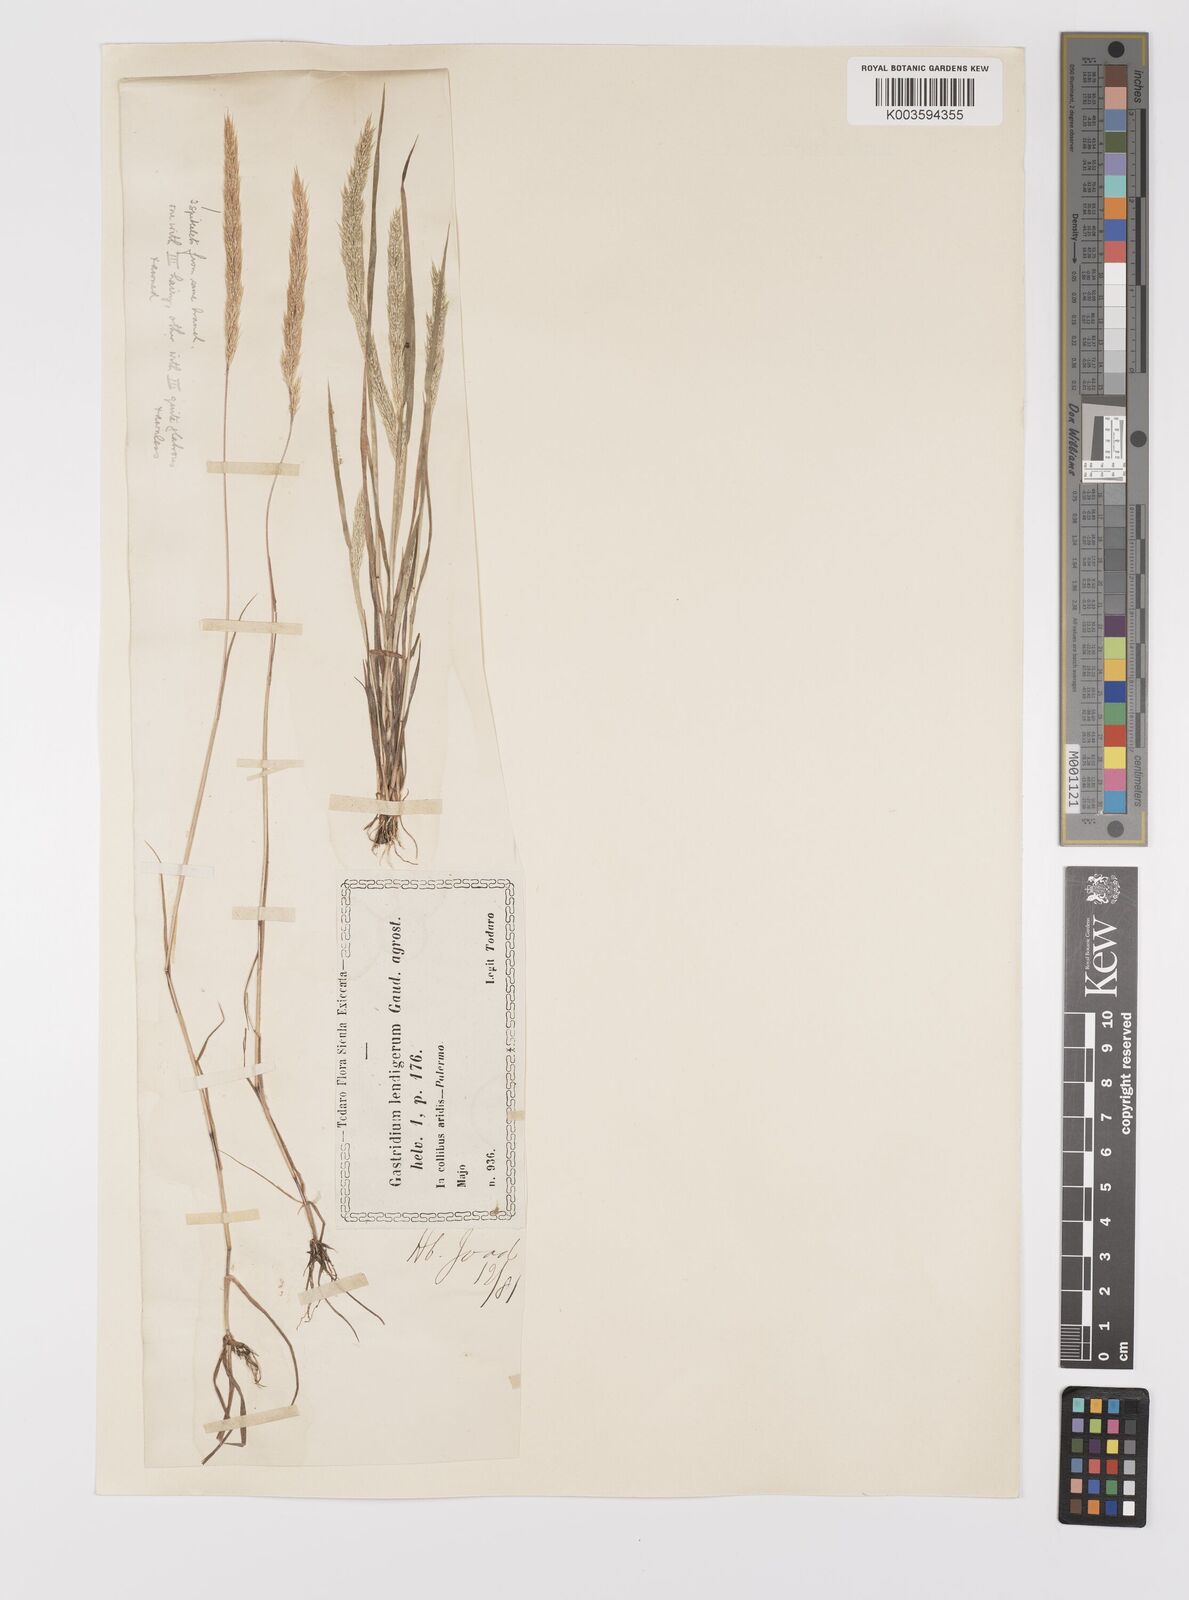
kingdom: Plantae
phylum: Tracheophyta
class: Liliopsida
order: Poales
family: Poaceae
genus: Gastridium
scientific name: Gastridium phleoides
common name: Nit grass
